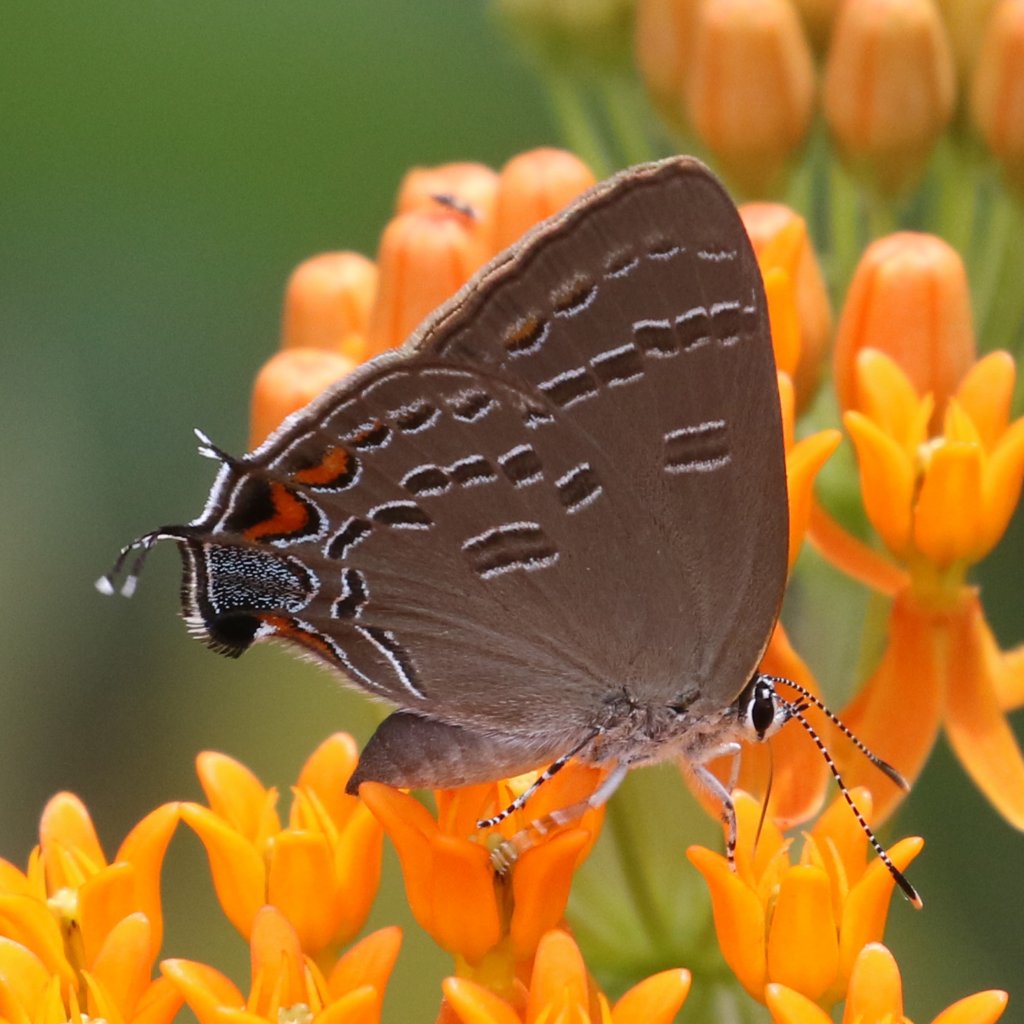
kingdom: Animalia
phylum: Arthropoda
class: Insecta
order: Lepidoptera
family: Lycaenidae
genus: Satyrium
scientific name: Satyrium calanus
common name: Banded Hairstreak
